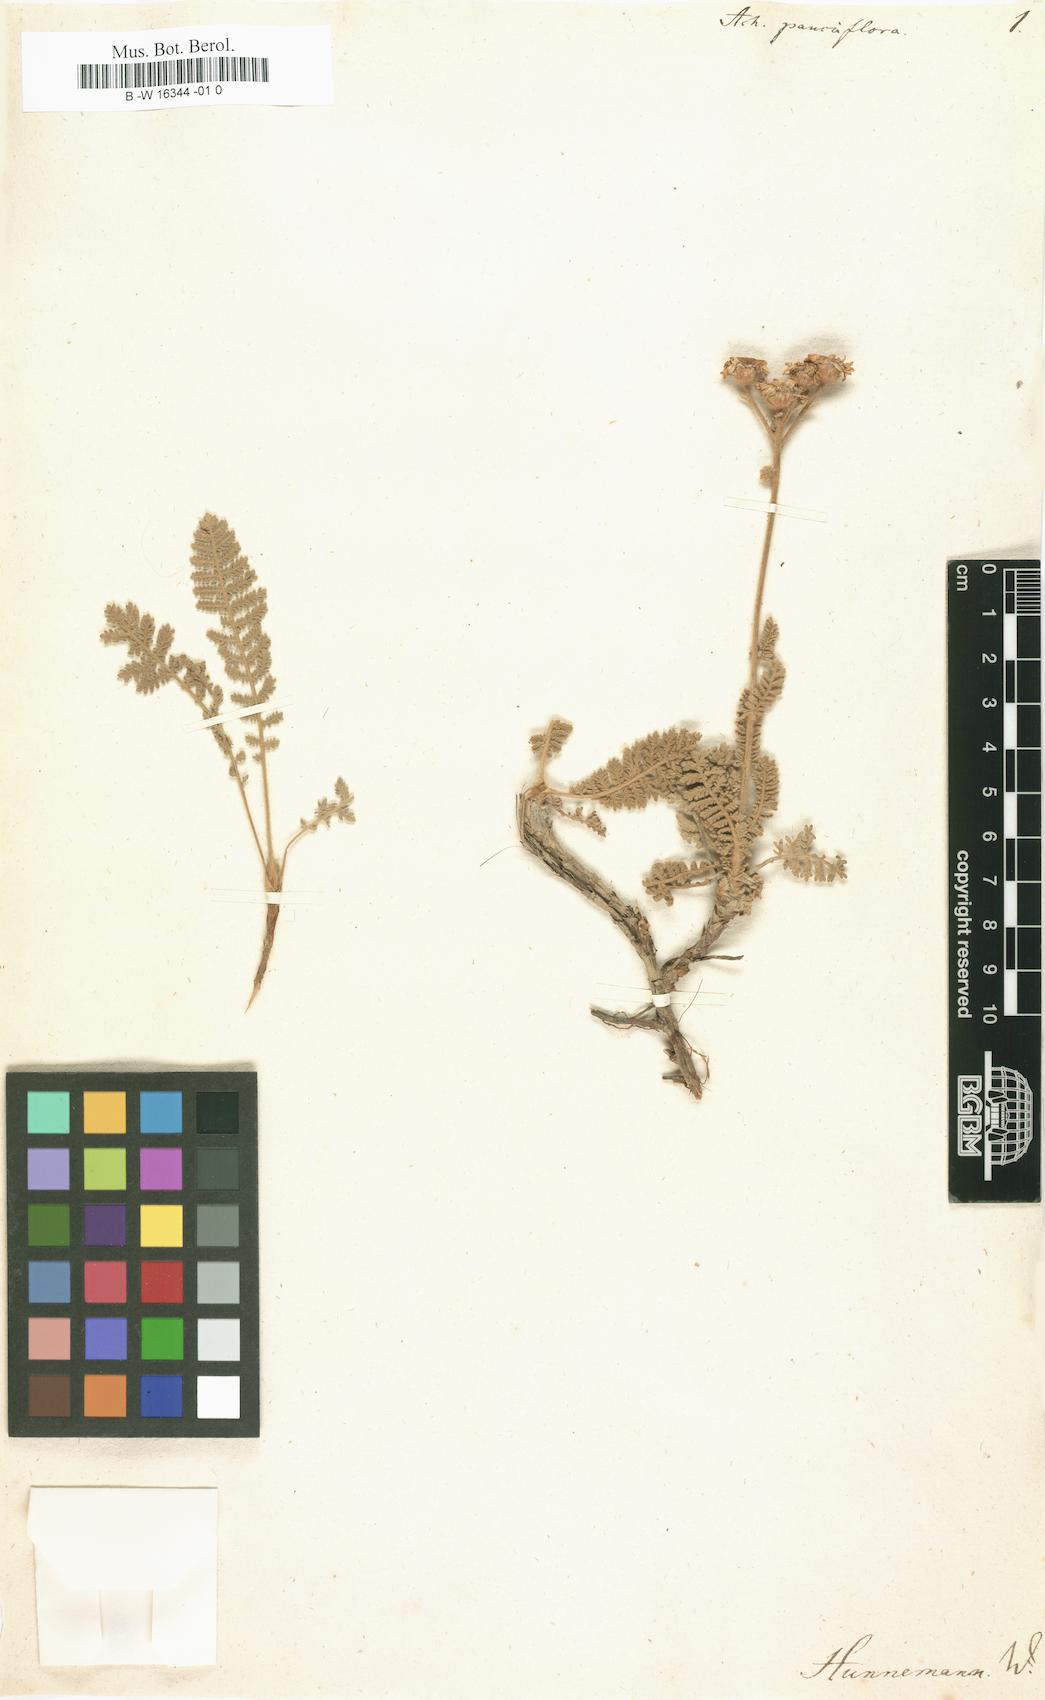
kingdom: Plantae
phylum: Tracheophyta
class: Magnoliopsida
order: Asterales
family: Asteraceae
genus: Tanacetum
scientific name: Tanacetum vahlii
